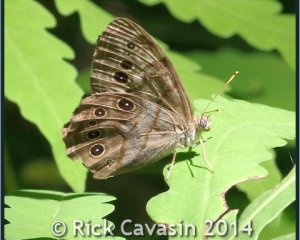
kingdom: Animalia
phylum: Arthropoda
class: Insecta
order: Lepidoptera
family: Nymphalidae
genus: Lethe
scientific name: Lethe anthedon
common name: Northern Pearly-Eye
